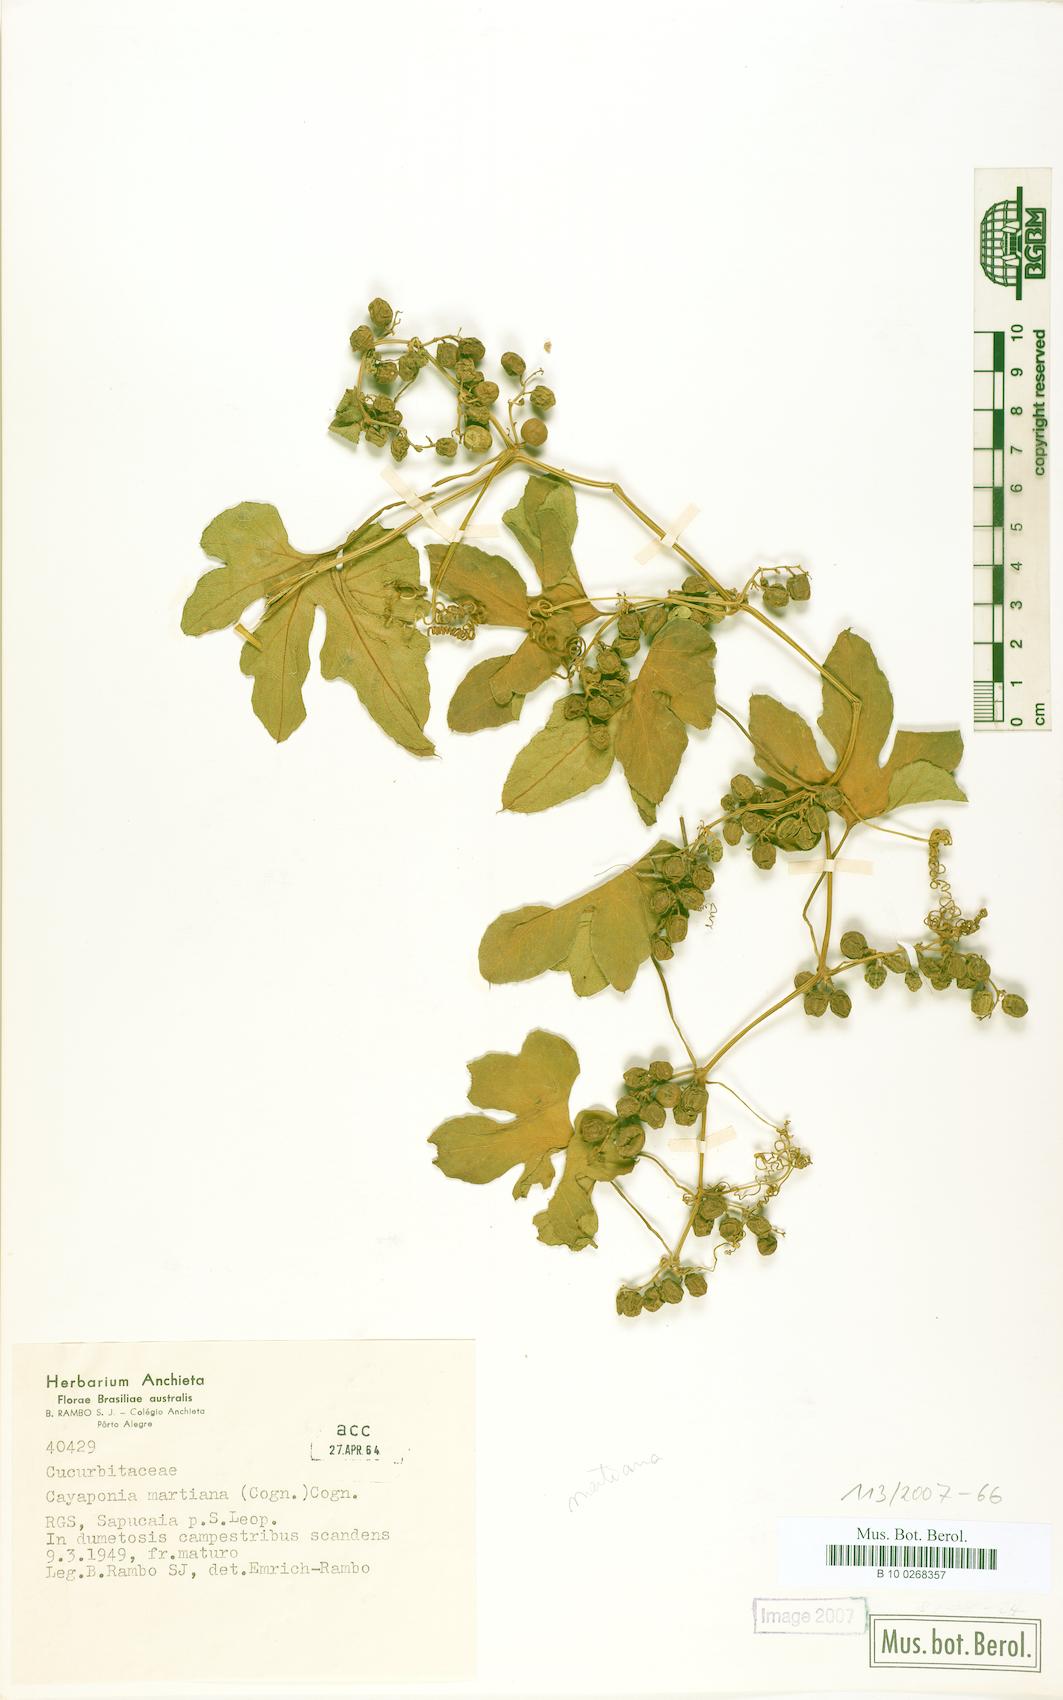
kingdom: Plantae
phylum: Tracheophyta
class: Magnoliopsida
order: Cucurbitales
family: Cucurbitaceae
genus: Cayaponia
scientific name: Cayaponia martiana
